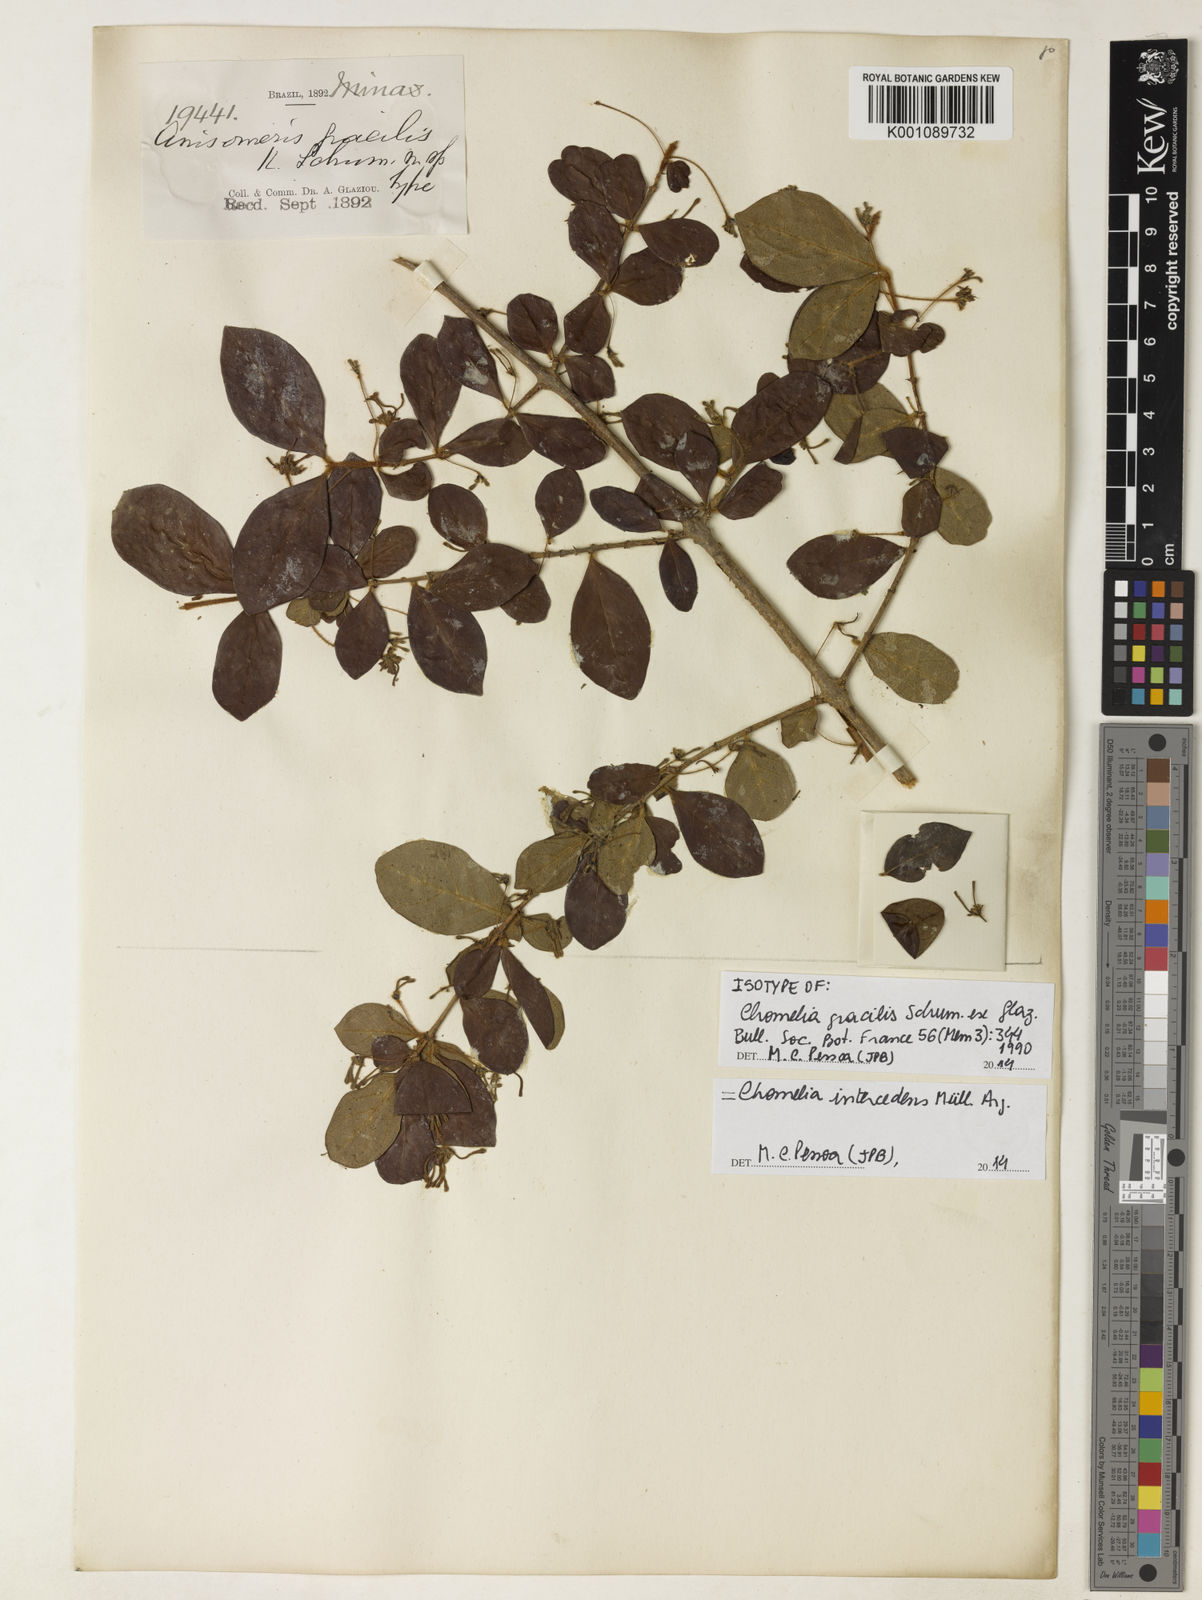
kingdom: Plantae
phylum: Tracheophyta
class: Magnoliopsida
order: Gentianales
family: Rubiaceae
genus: Chomelia
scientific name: Chomelia gracilis
